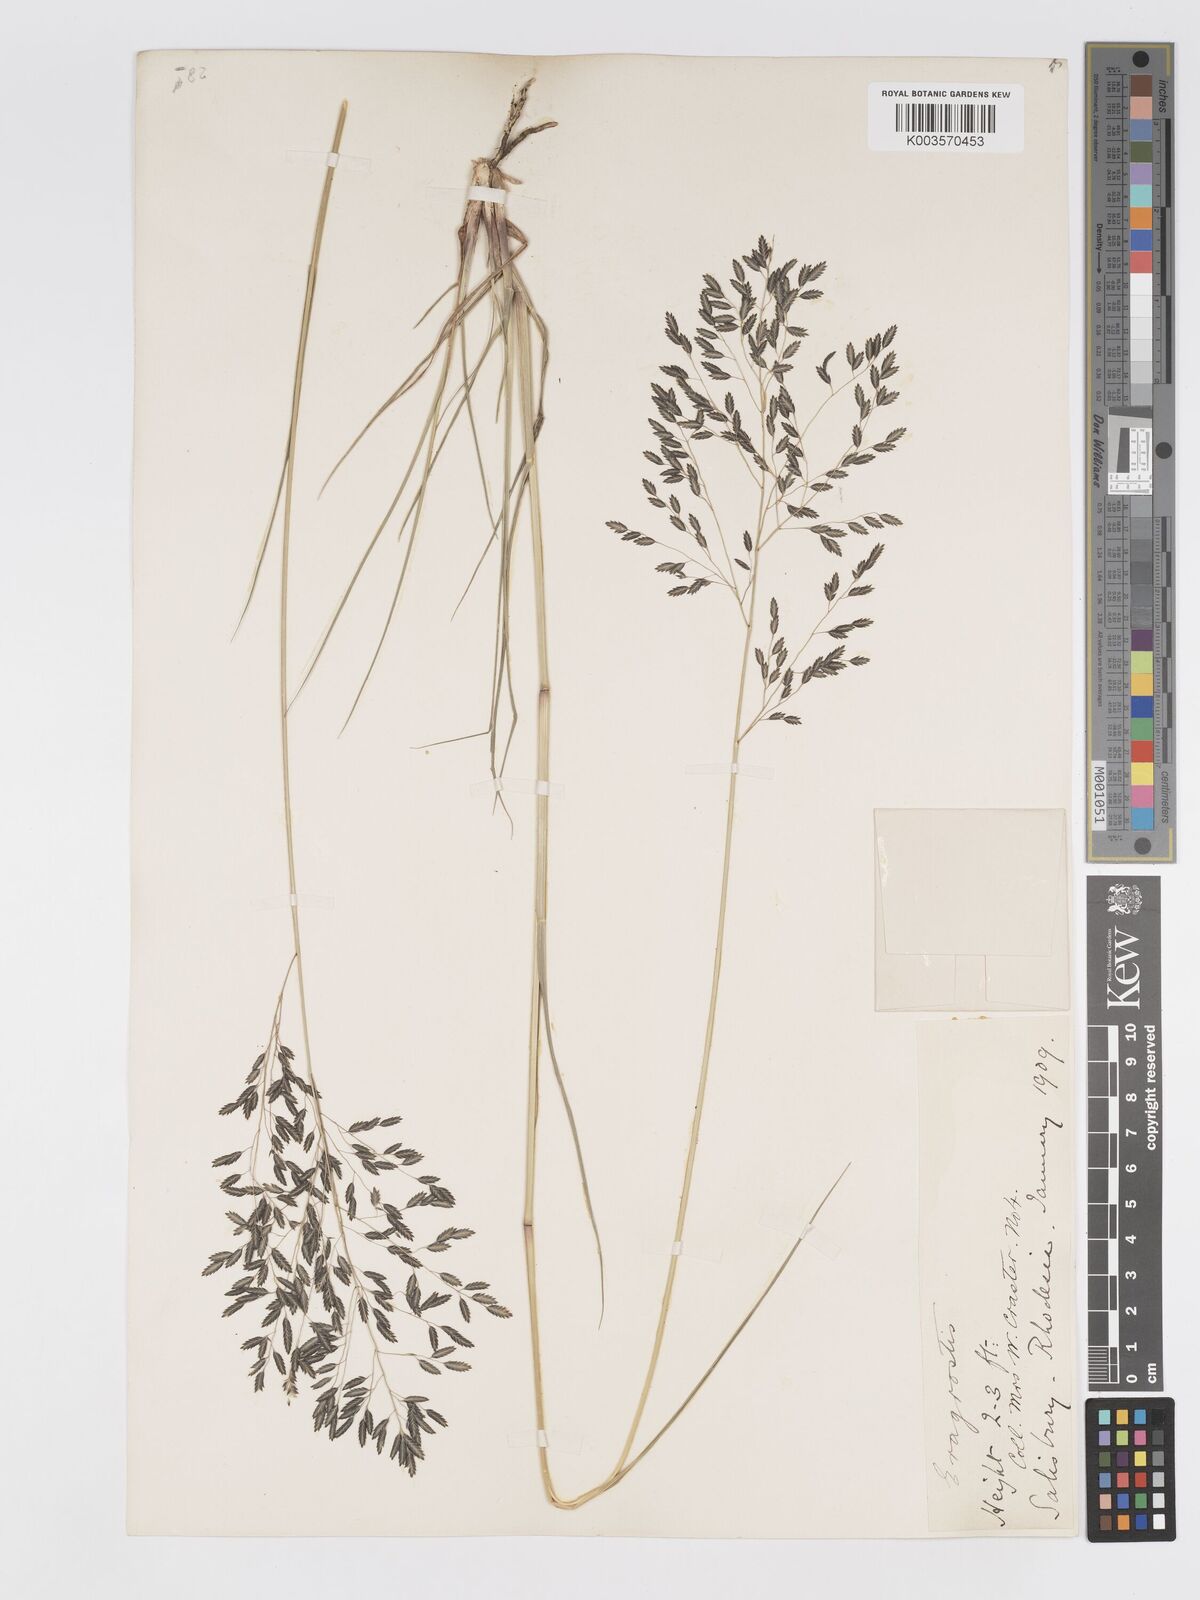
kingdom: Plantae
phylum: Tracheophyta
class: Liliopsida
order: Poales
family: Poaceae
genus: Eragrostis
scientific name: Eragrostis inamoena
